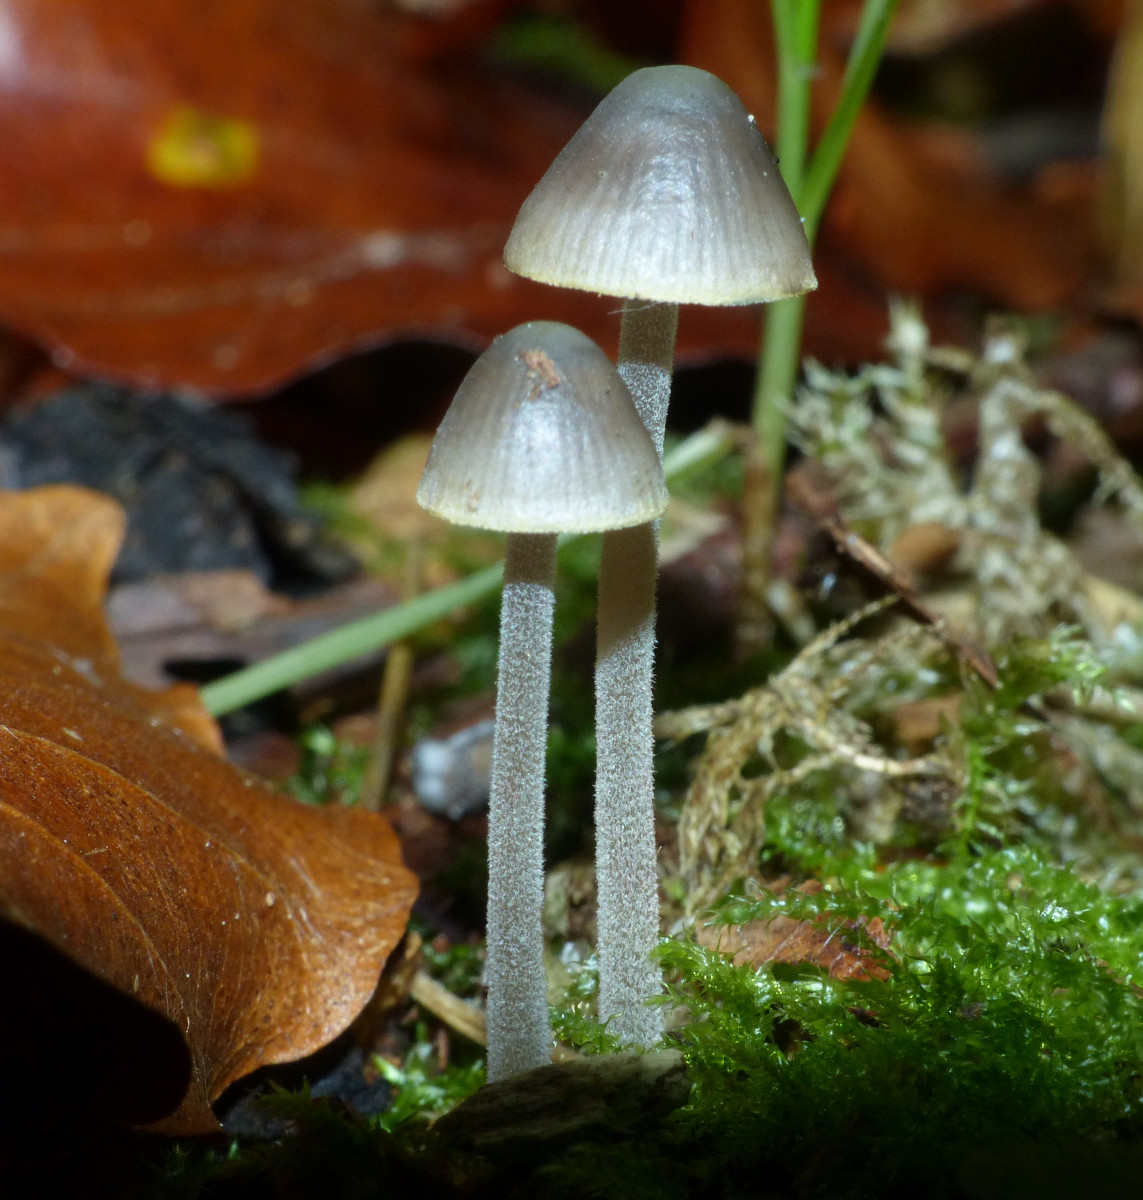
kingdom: Fungi
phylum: Basidiomycota
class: Agaricomycetes
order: Agaricales
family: Mycenaceae
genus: Mycena
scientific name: Mycena amicta
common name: iris-huesvamp
